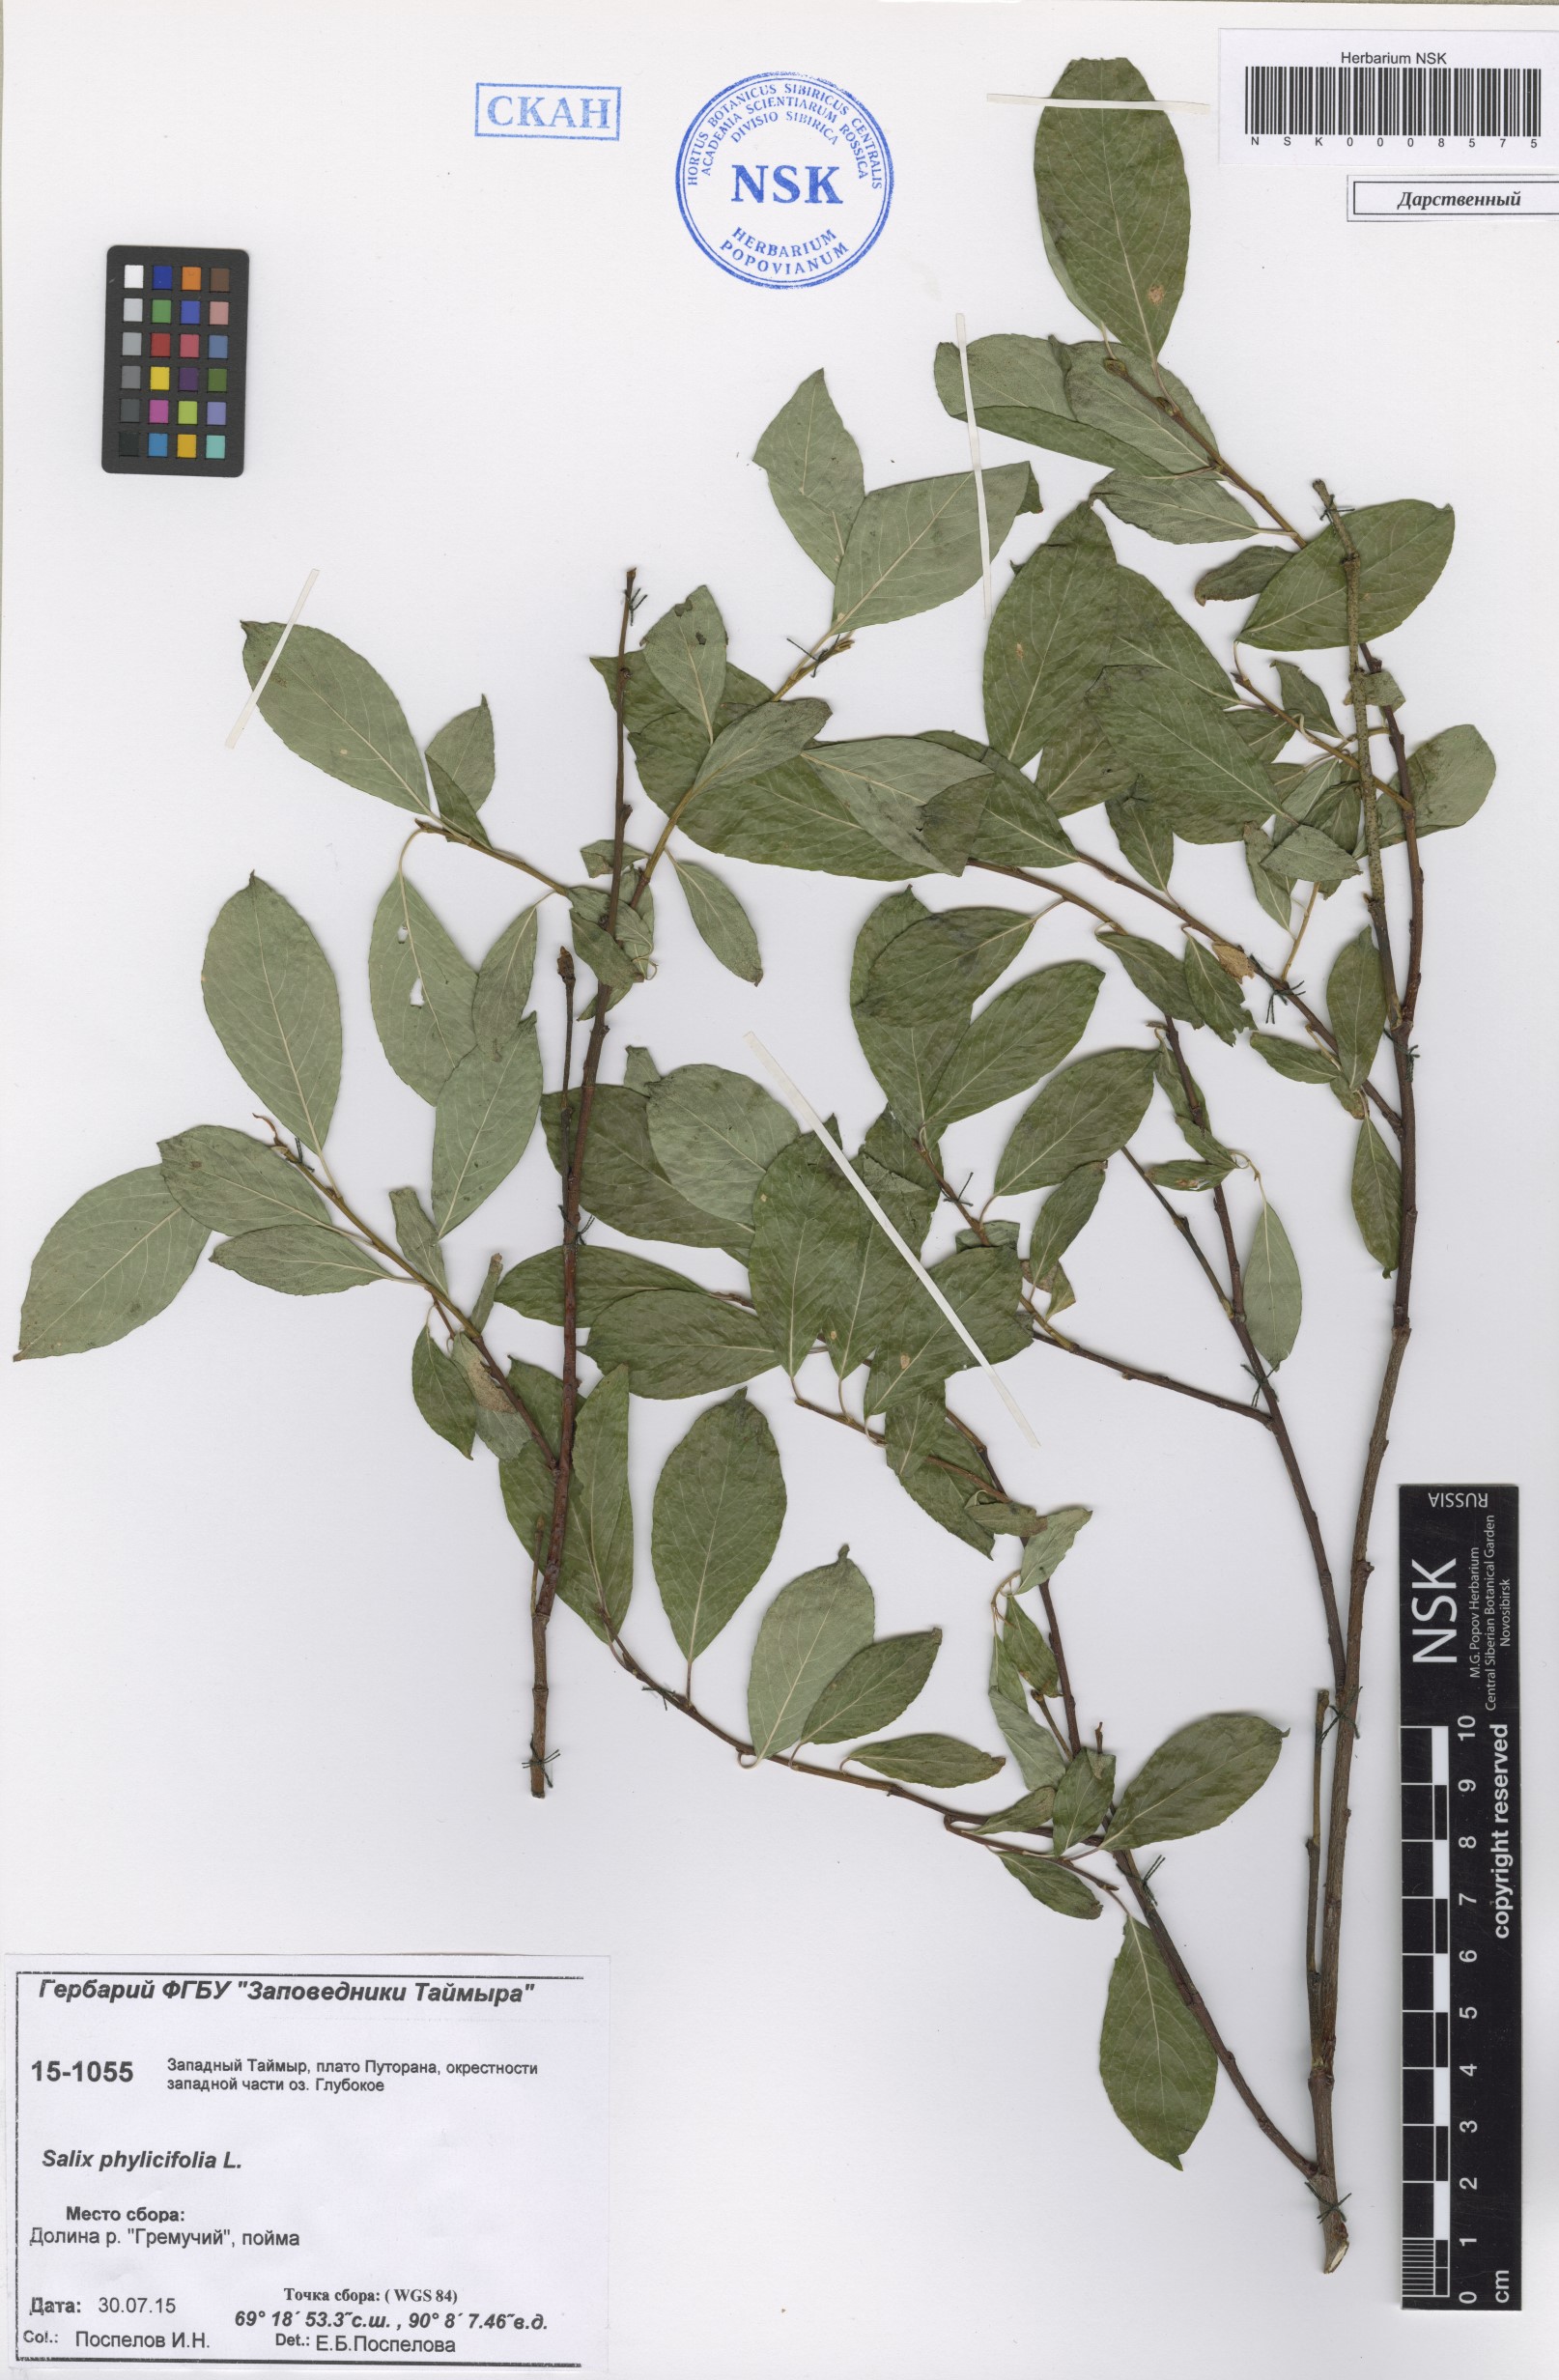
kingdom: Plantae
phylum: Tracheophyta
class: Magnoliopsida
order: Malpighiales
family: Salicaceae
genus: Salix
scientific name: Salix phylicifolia
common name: Tea-leaved willow
